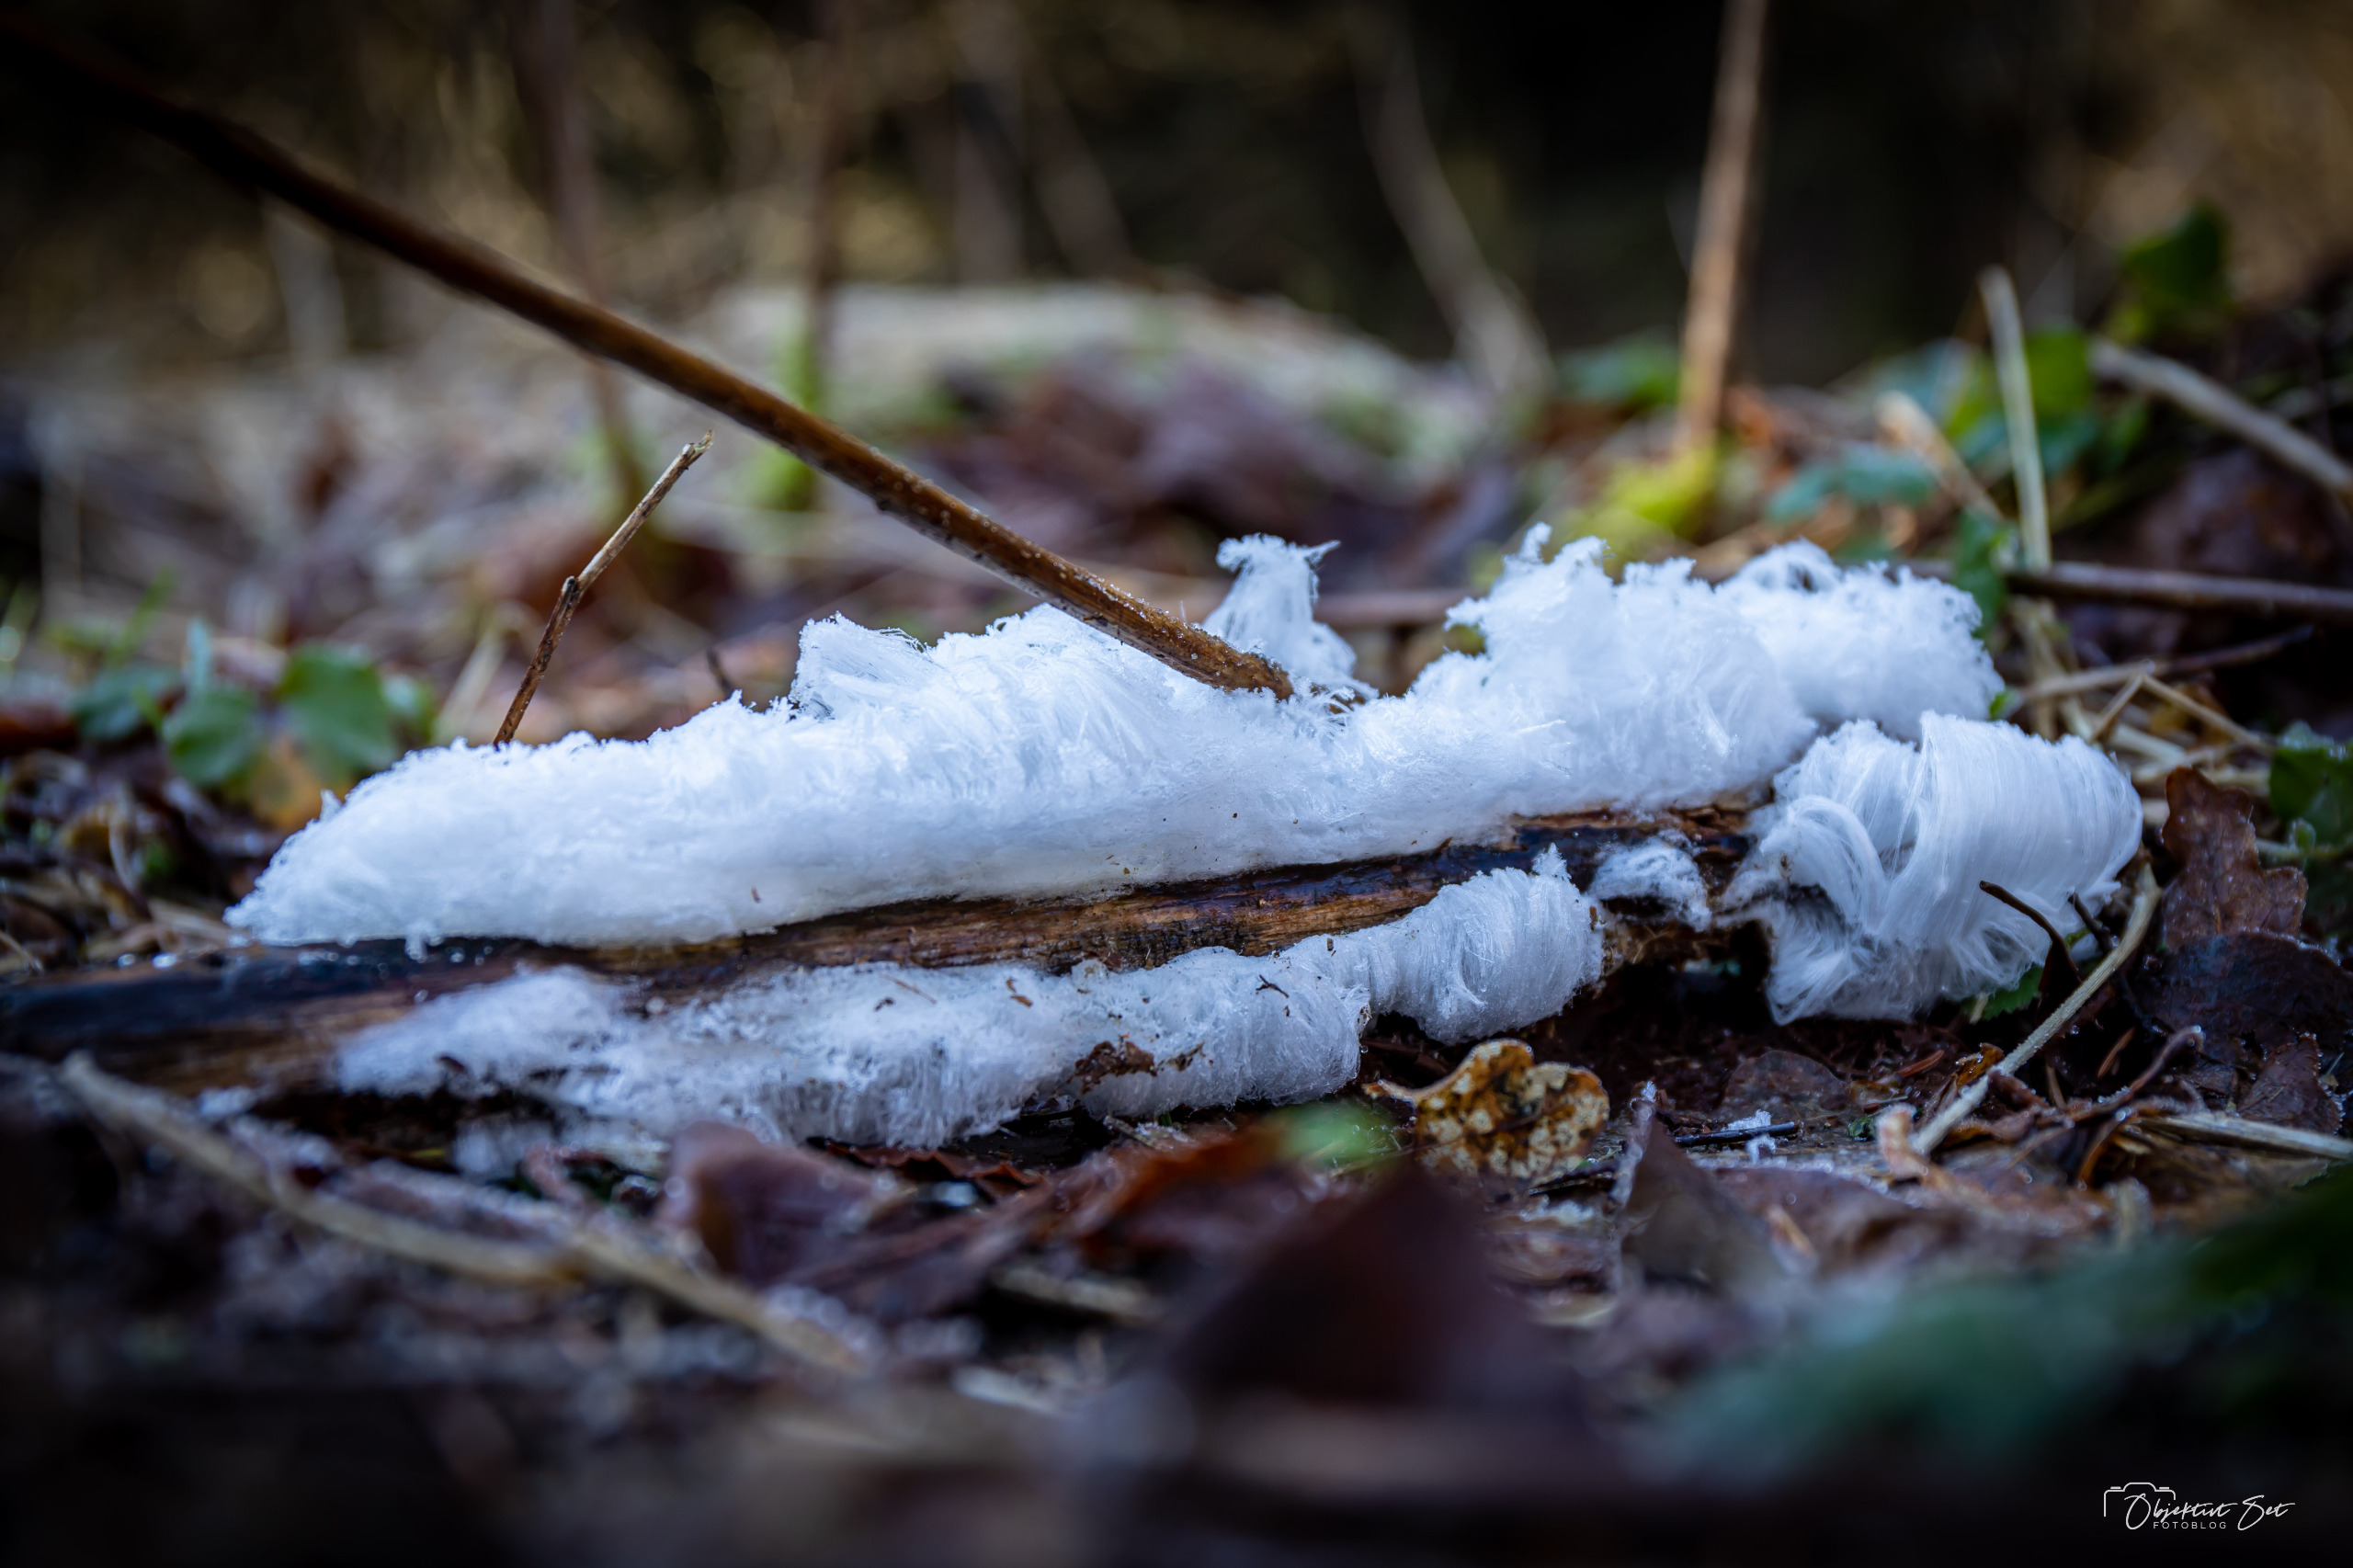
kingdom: Fungi
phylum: Basidiomycota
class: Tremellomycetes
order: Tremellales
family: Exidiaceae
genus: Exidiopsis
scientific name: Exidiopsis effusa
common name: Smuk bævrehinde
